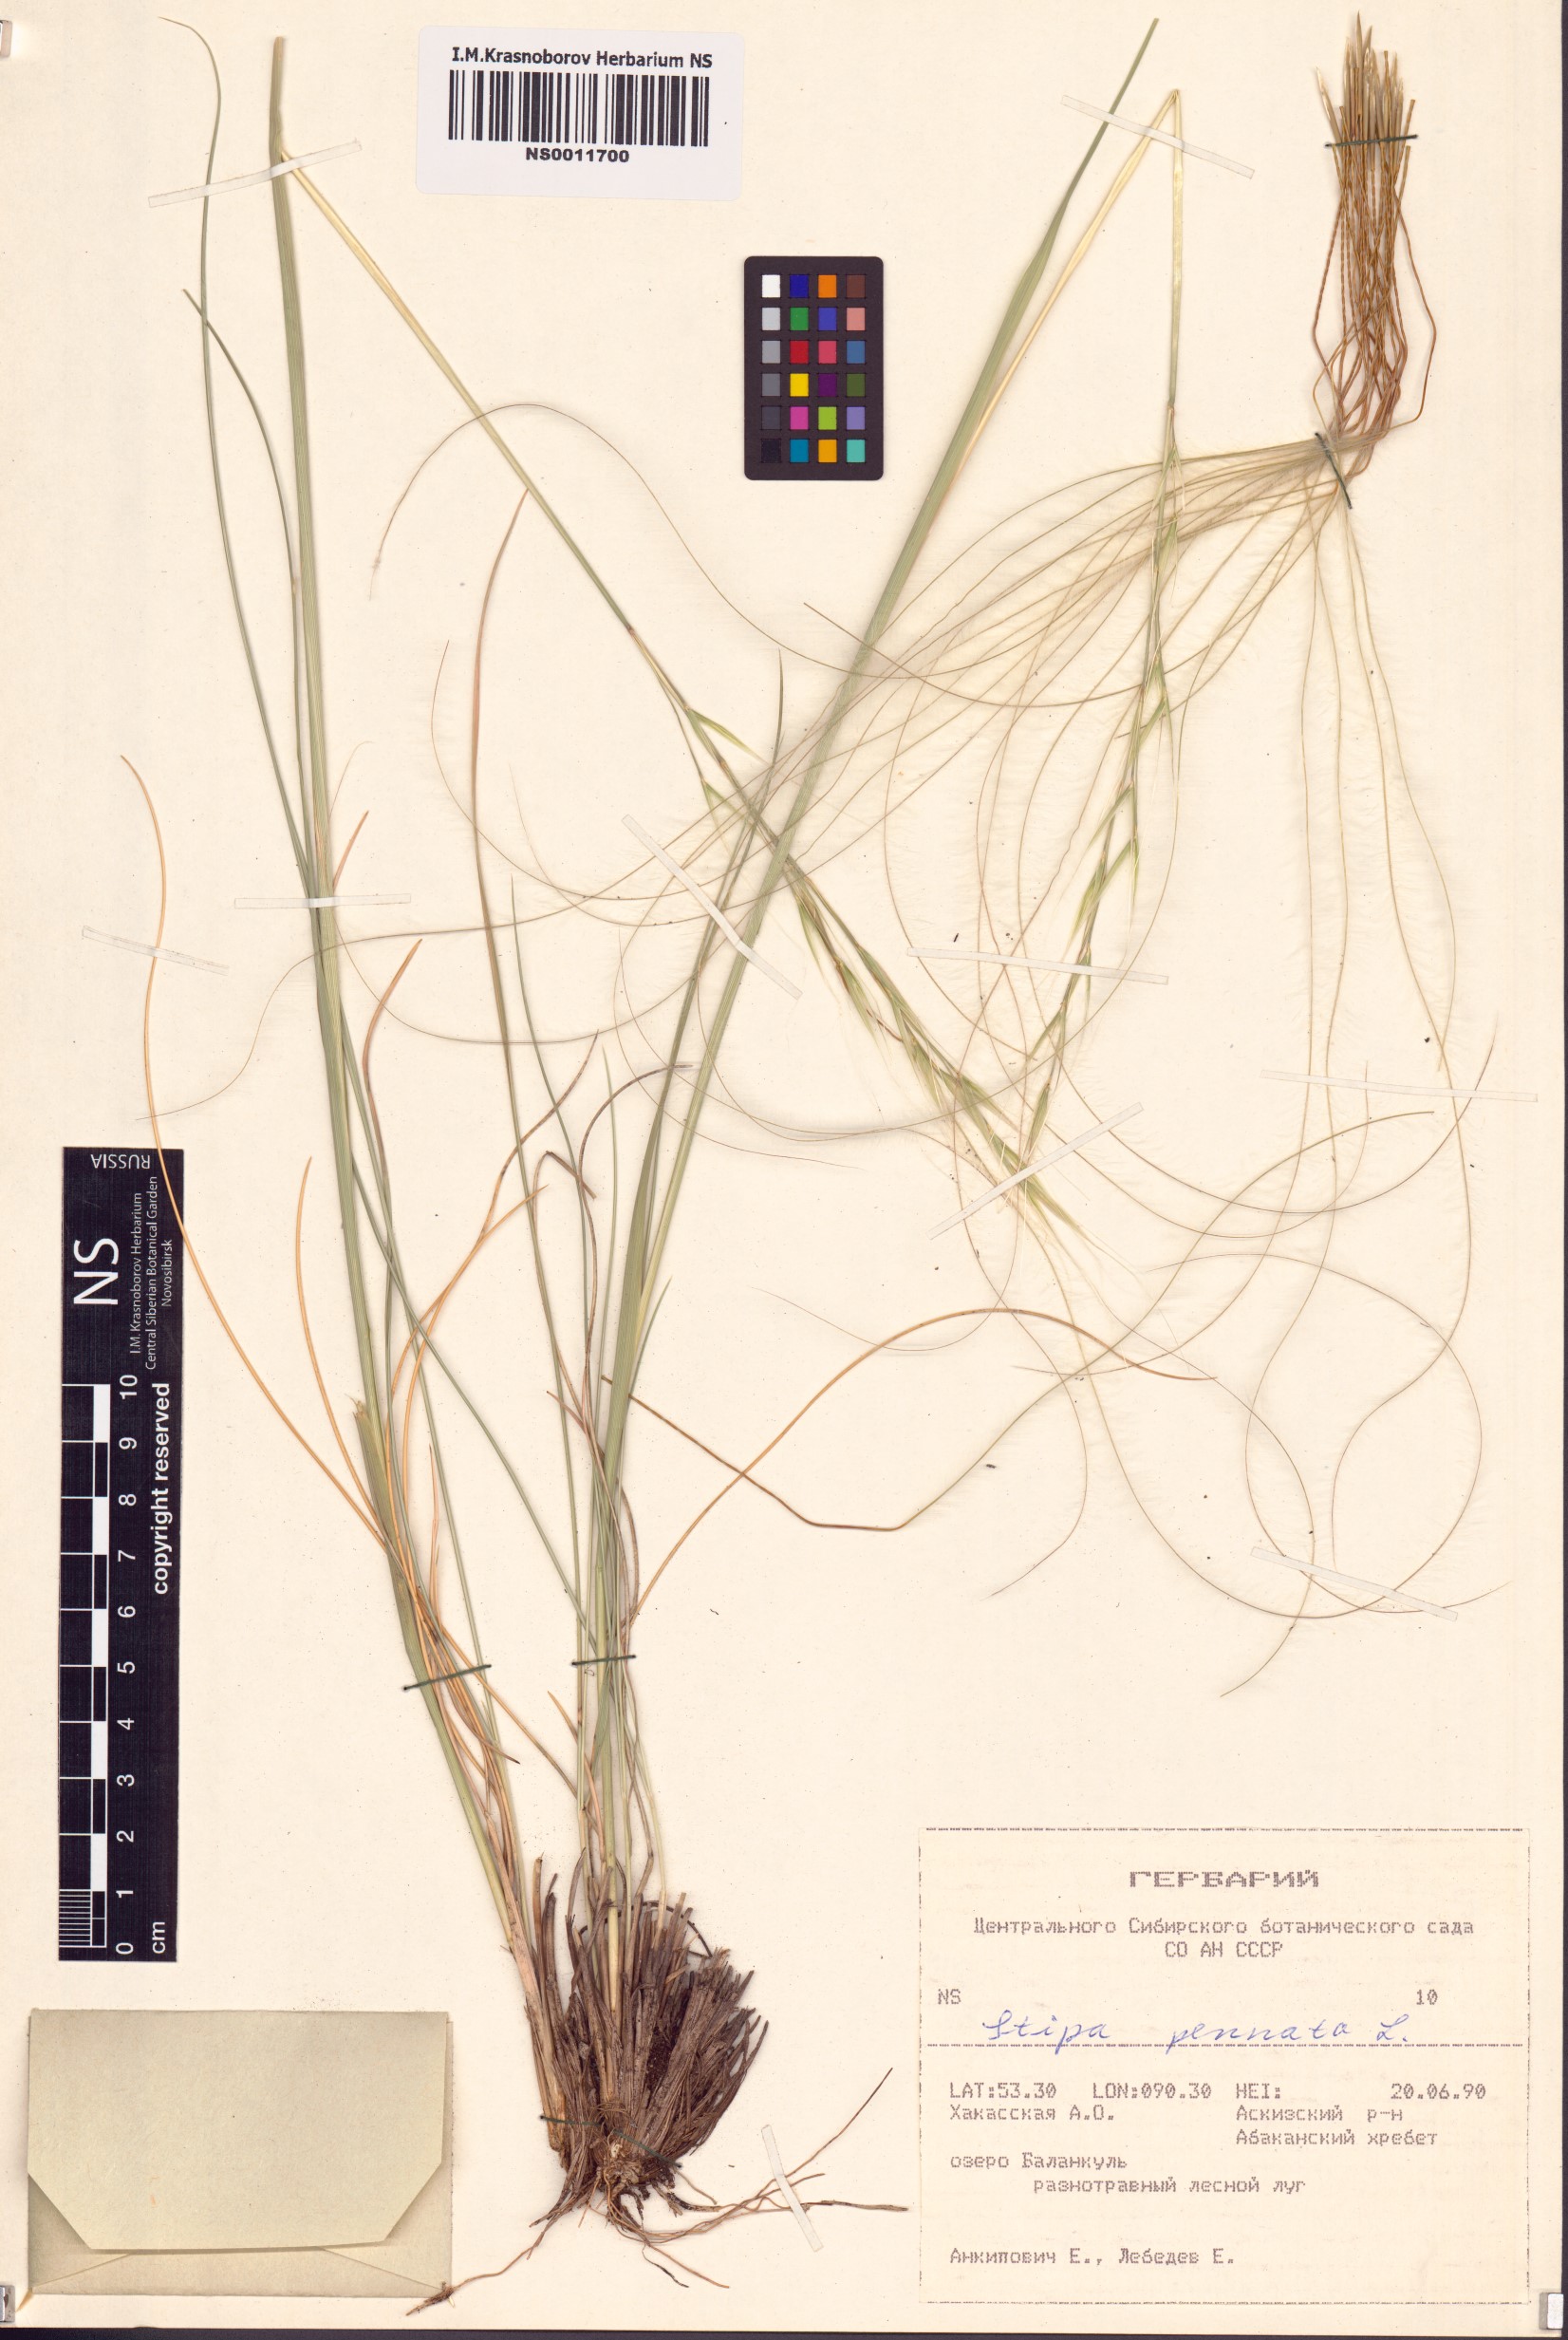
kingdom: Plantae
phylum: Tracheophyta
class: Liliopsida
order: Poales
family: Poaceae
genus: Stipa
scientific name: Stipa pennata
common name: European feather grass
